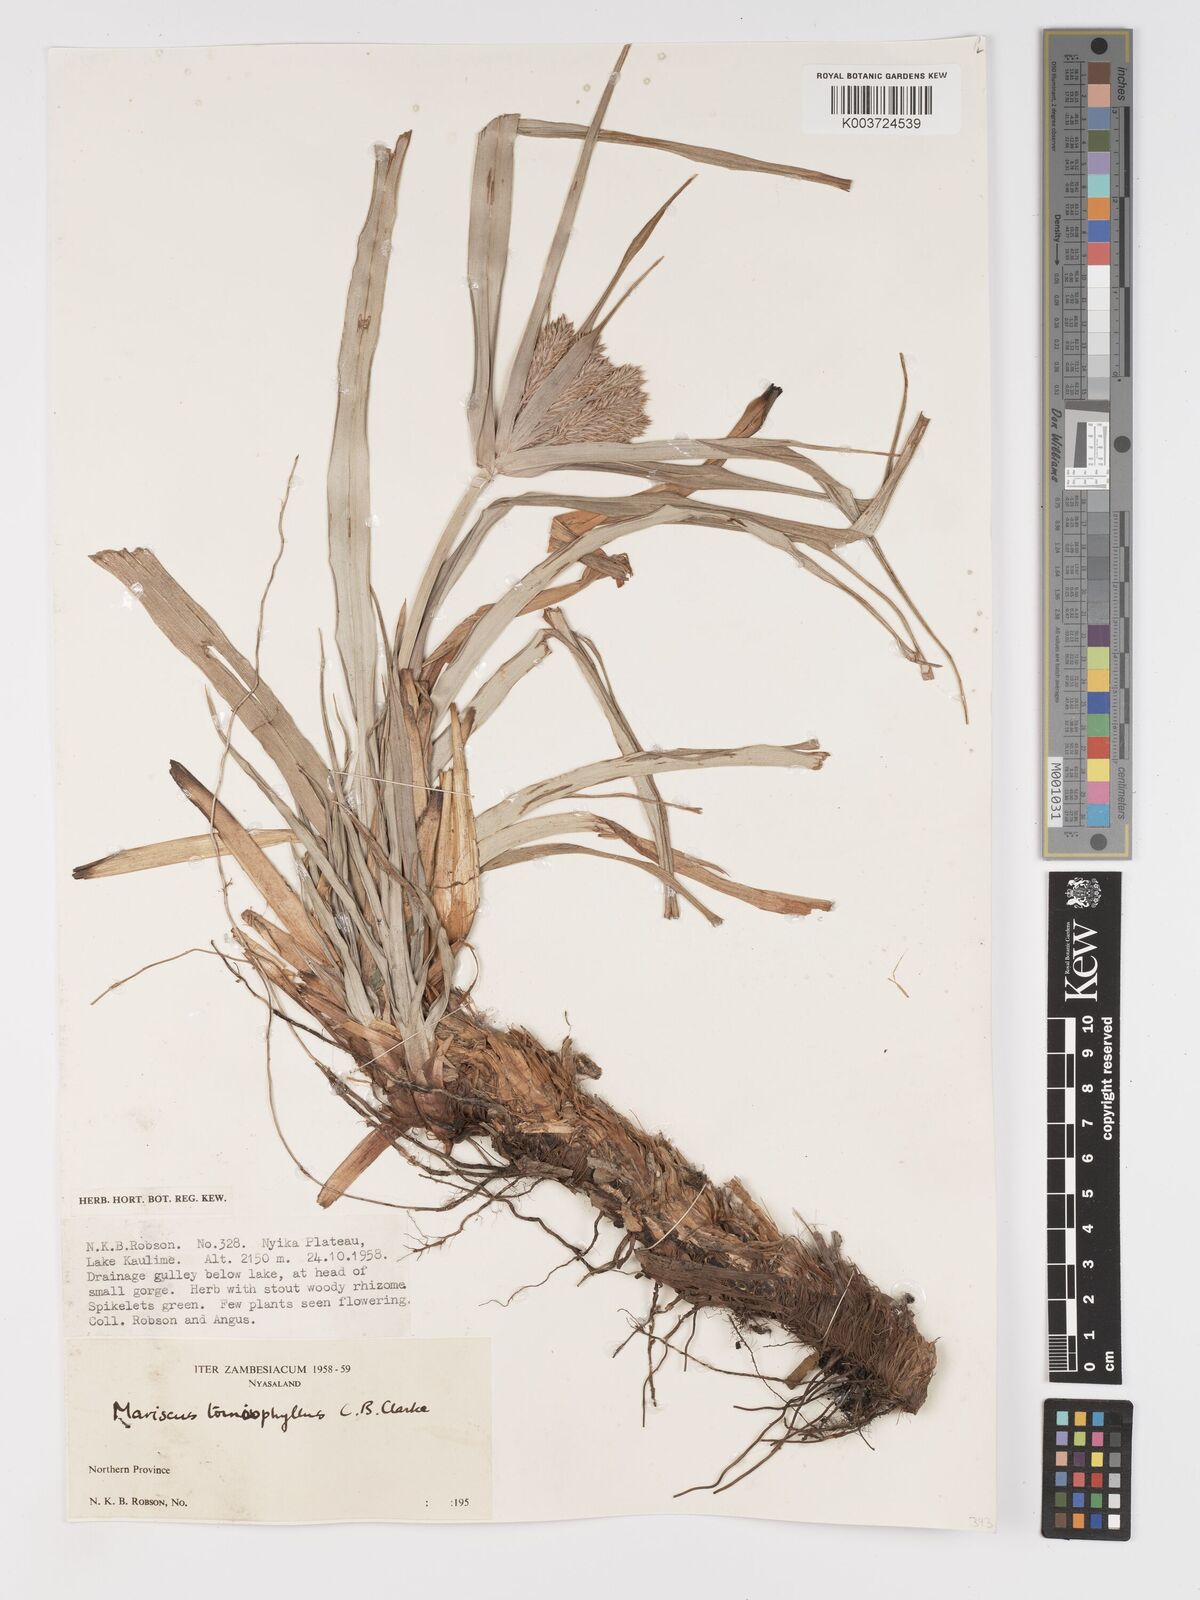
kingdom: Plantae
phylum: Tracheophyta
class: Liliopsida
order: Poales
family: Cyperaceae
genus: Cyperus
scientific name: Cyperus tomaiophyllus
